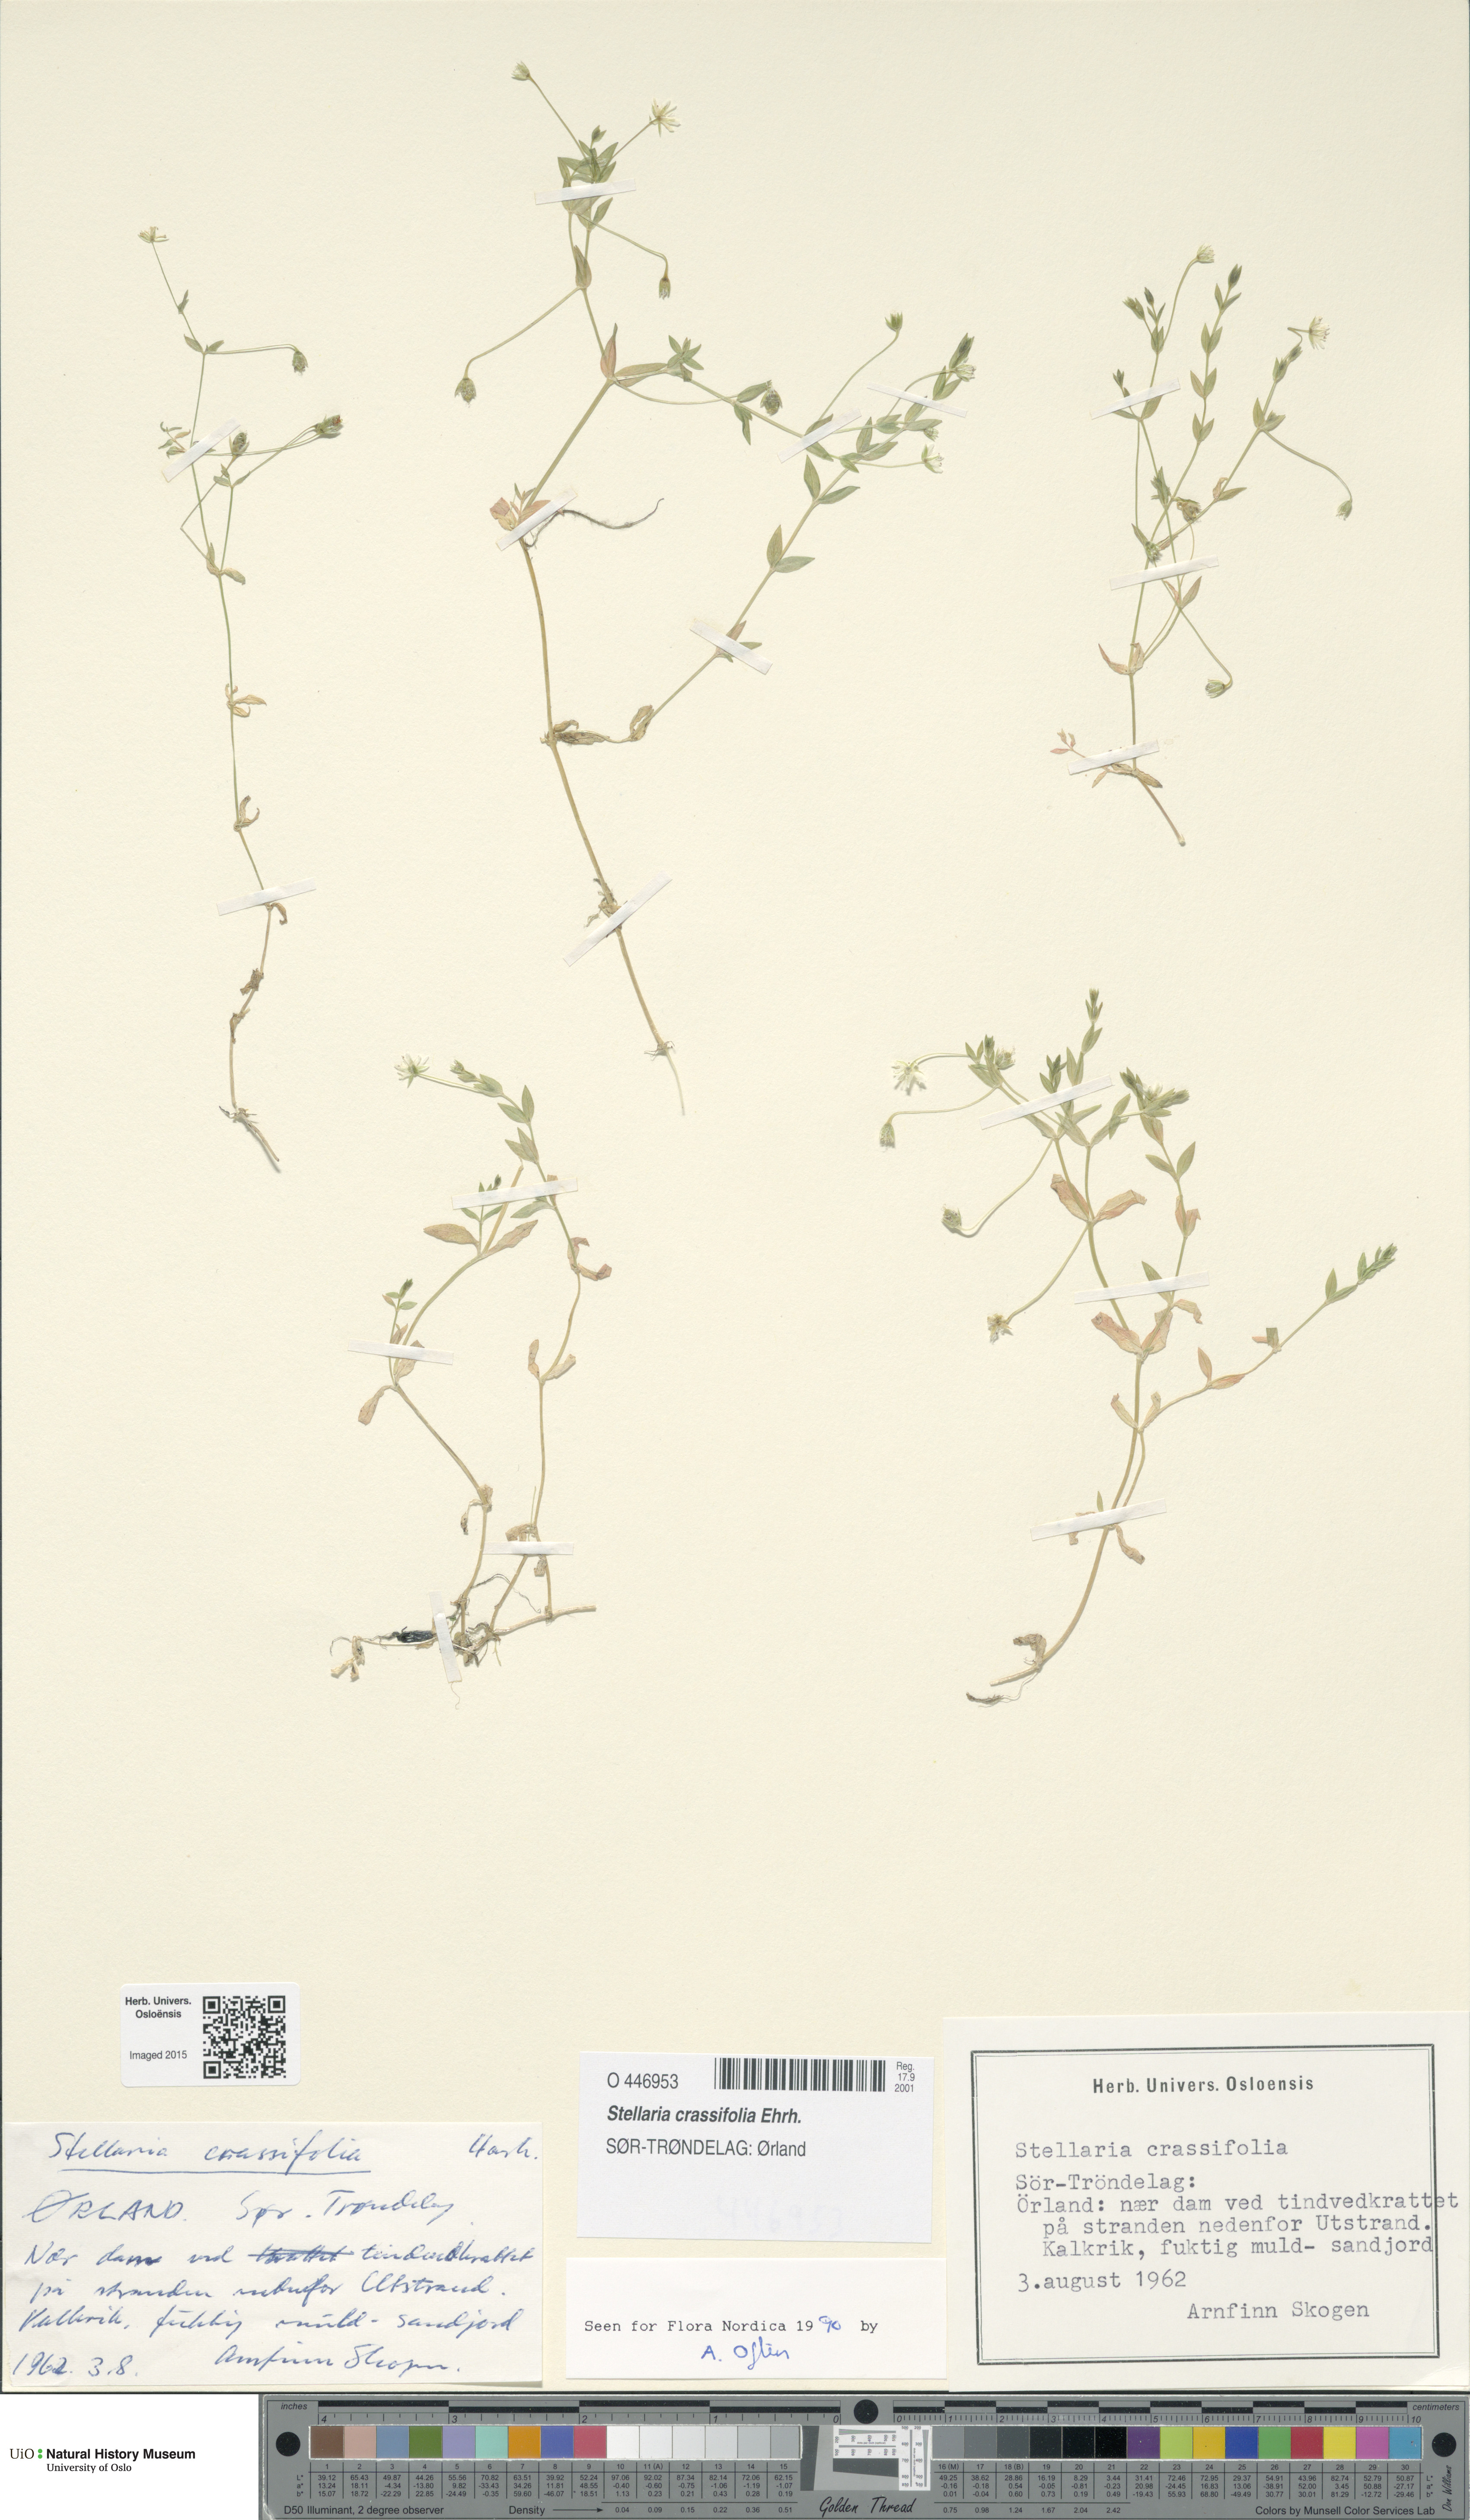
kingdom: Plantae
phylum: Tracheophyta
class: Magnoliopsida
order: Caryophyllales
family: Caryophyllaceae
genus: Stellaria
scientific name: Stellaria crassifolia
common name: Fleshy starwort
